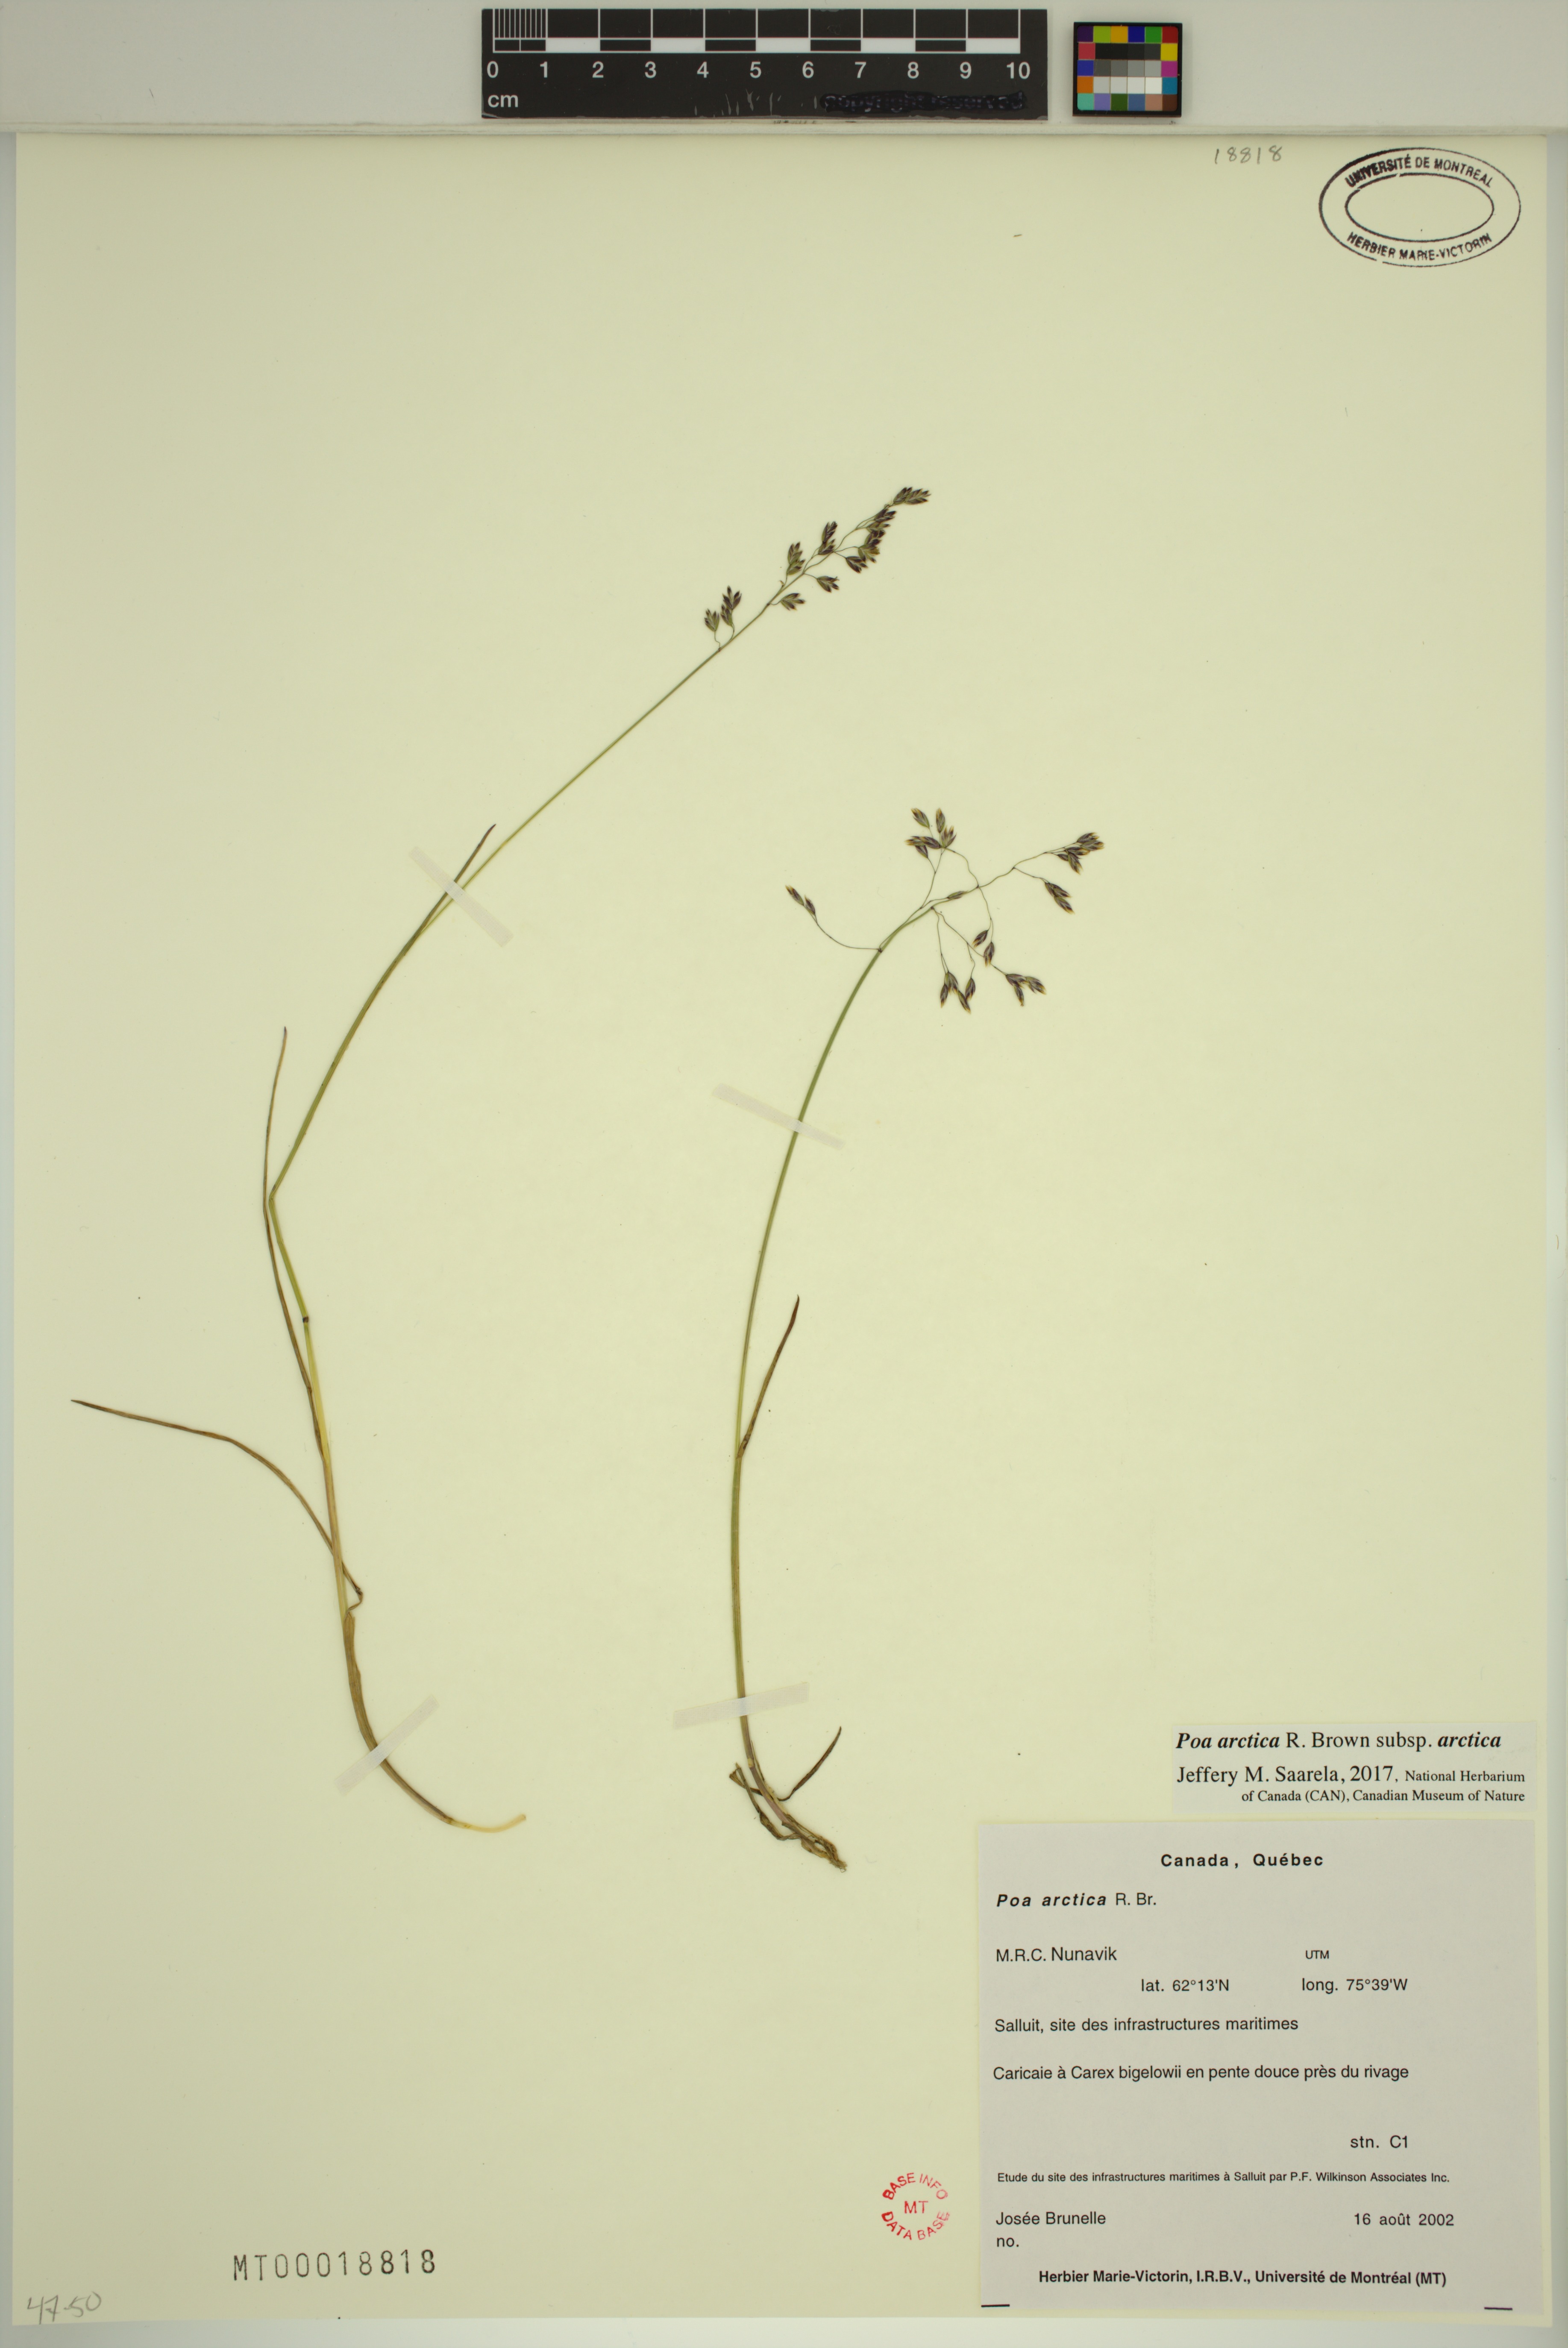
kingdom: Plantae
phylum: Tracheophyta
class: Liliopsida
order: Poales
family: Poaceae
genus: Poa
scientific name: Poa arctica
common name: Arctic bluegrass
